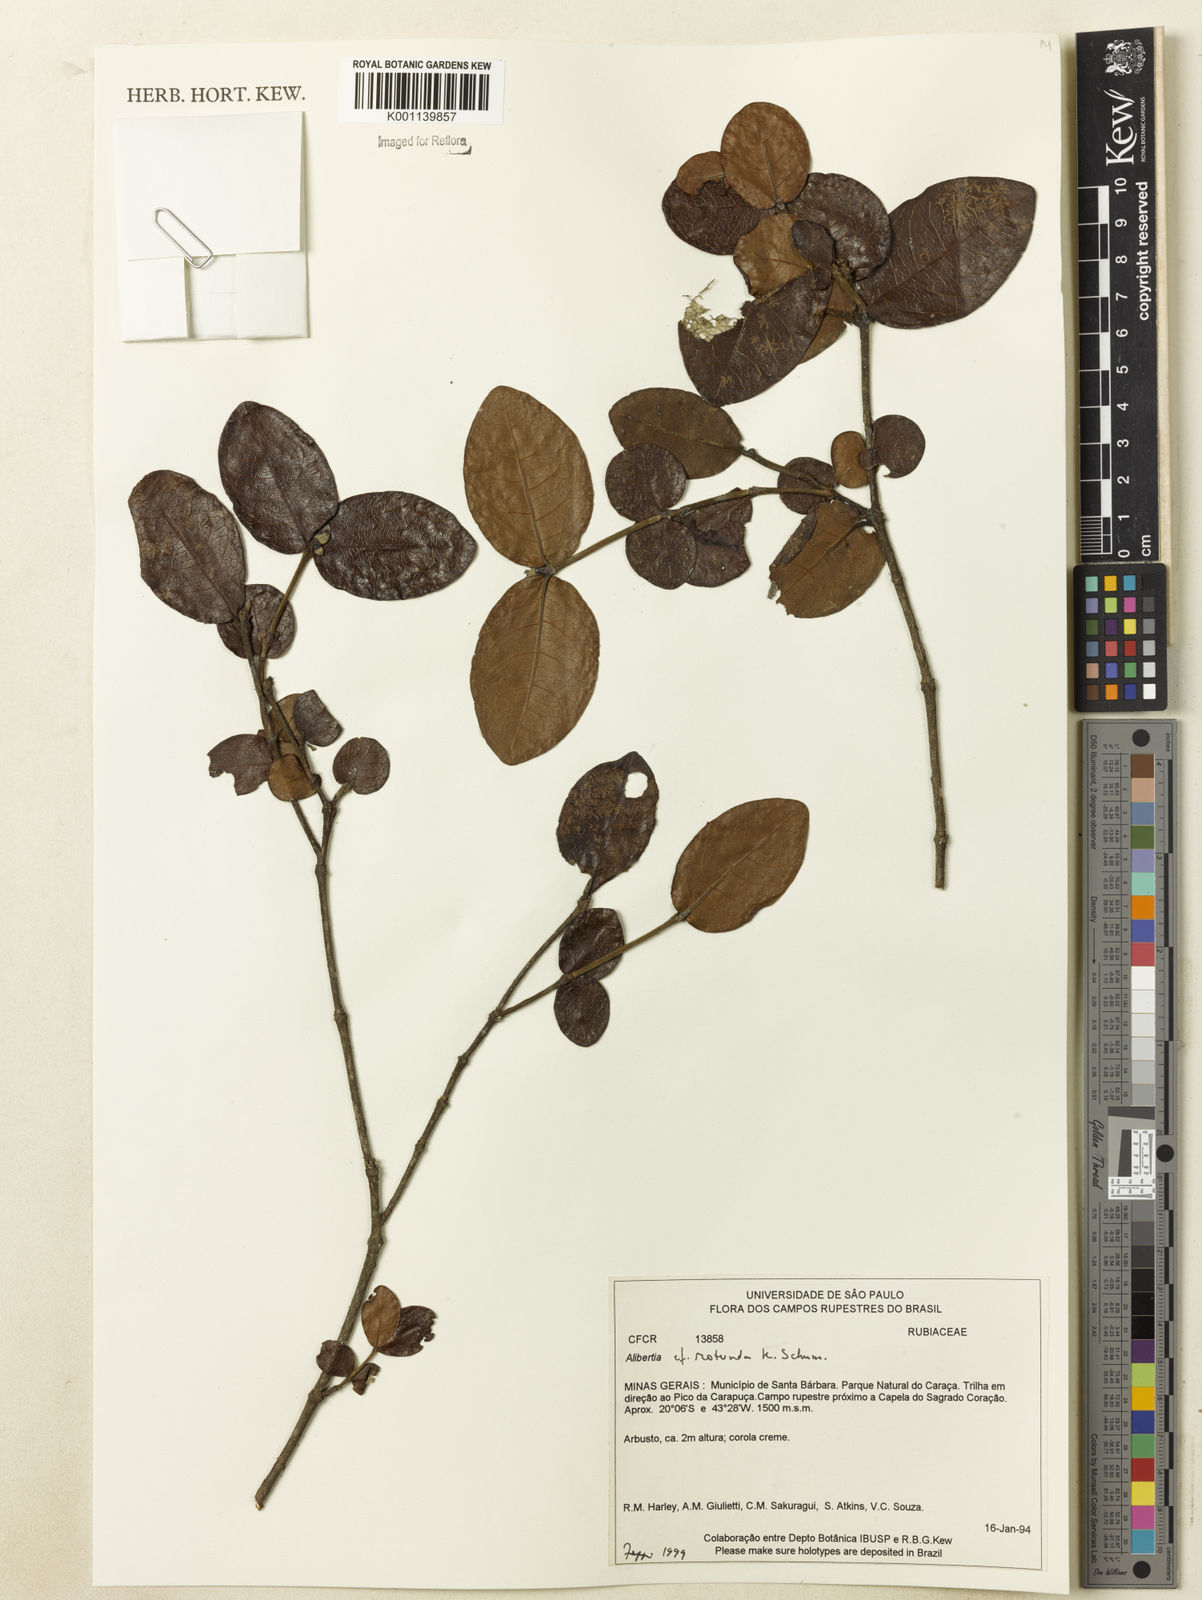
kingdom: Plantae
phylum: Tracheophyta
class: Magnoliopsida
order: Gentianales
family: Rubiaceae
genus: Cordiera
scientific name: Cordiera concolor
